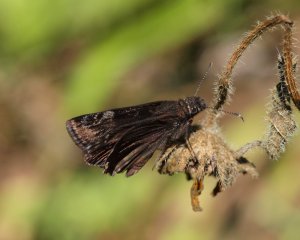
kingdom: Animalia
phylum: Arthropoda
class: Insecta
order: Lepidoptera
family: Hesperiidae
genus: Gesta
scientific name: Gesta
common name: Wild Indigo Duskywing
